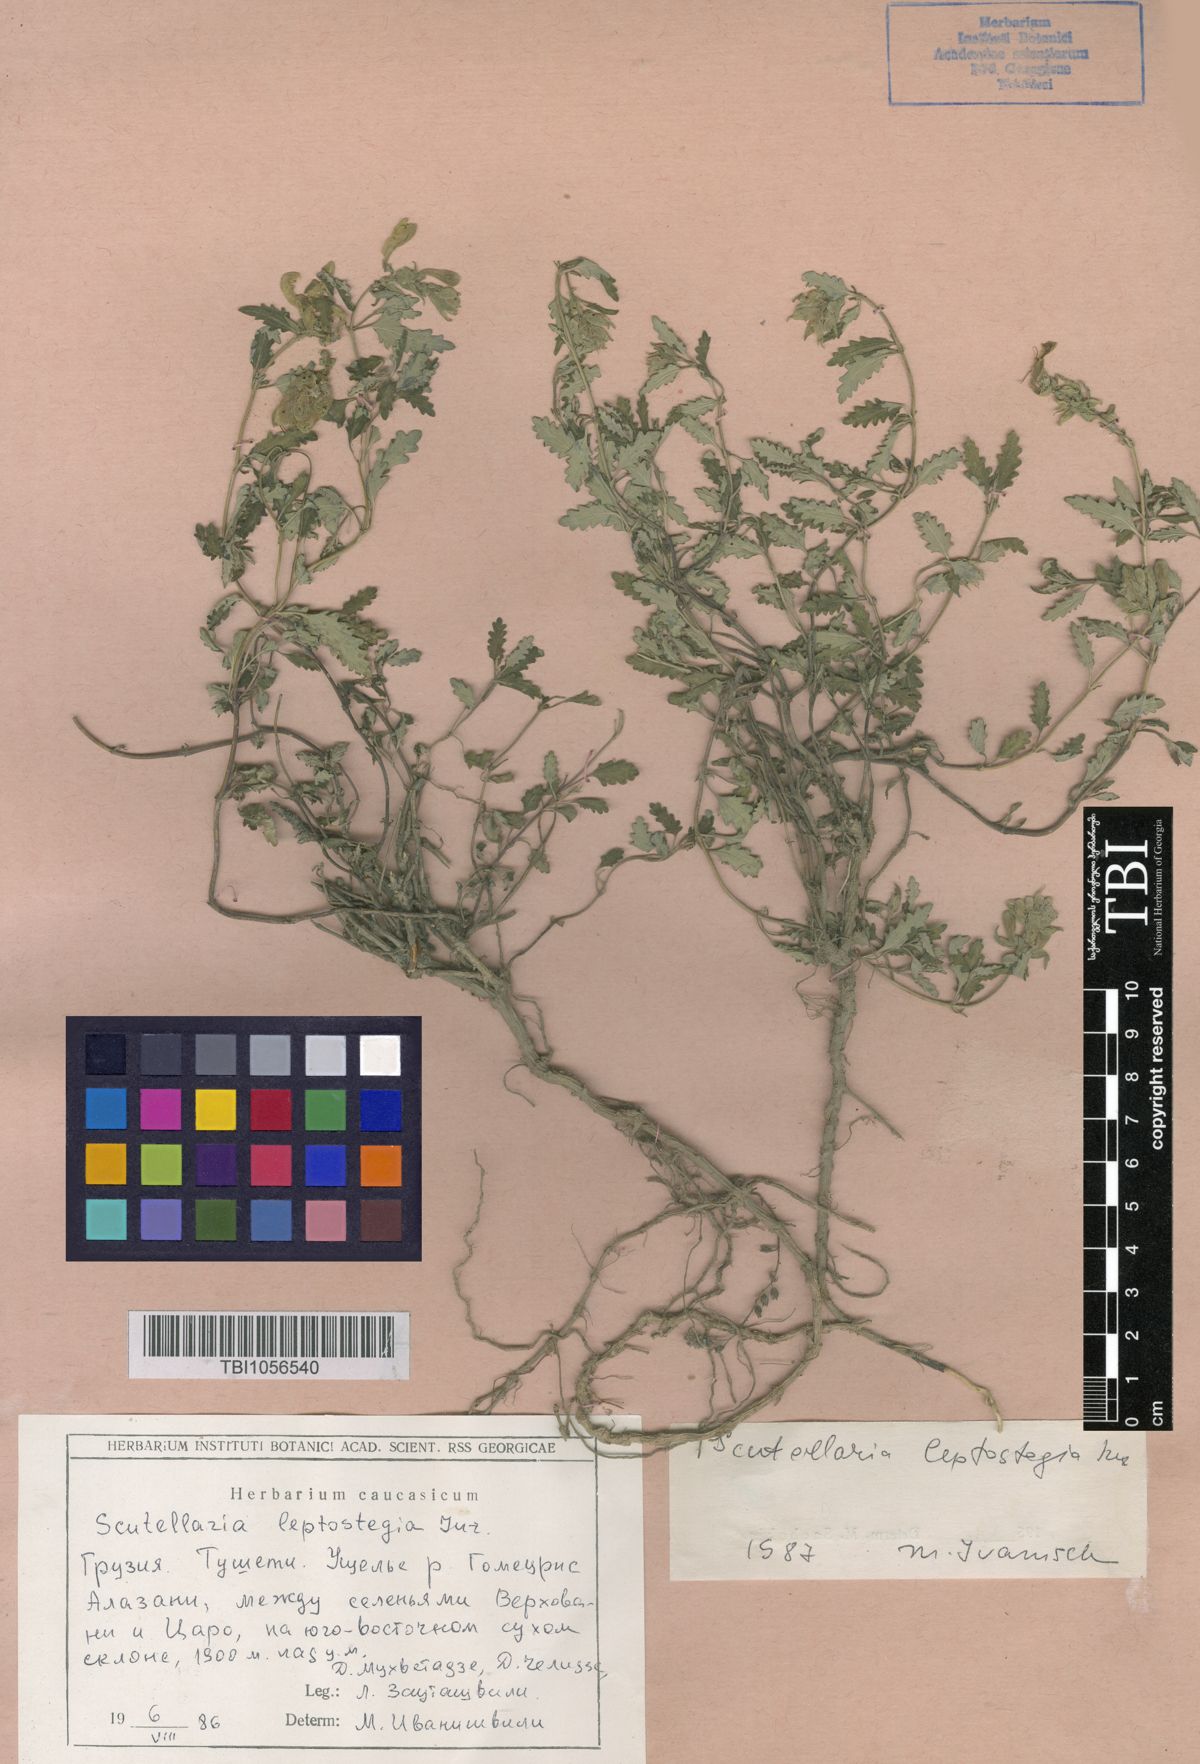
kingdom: Plantae
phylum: Tracheophyta
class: Magnoliopsida
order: Lamiales
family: Lamiaceae
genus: Scutellaria
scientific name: Scutellaria leptostegia
